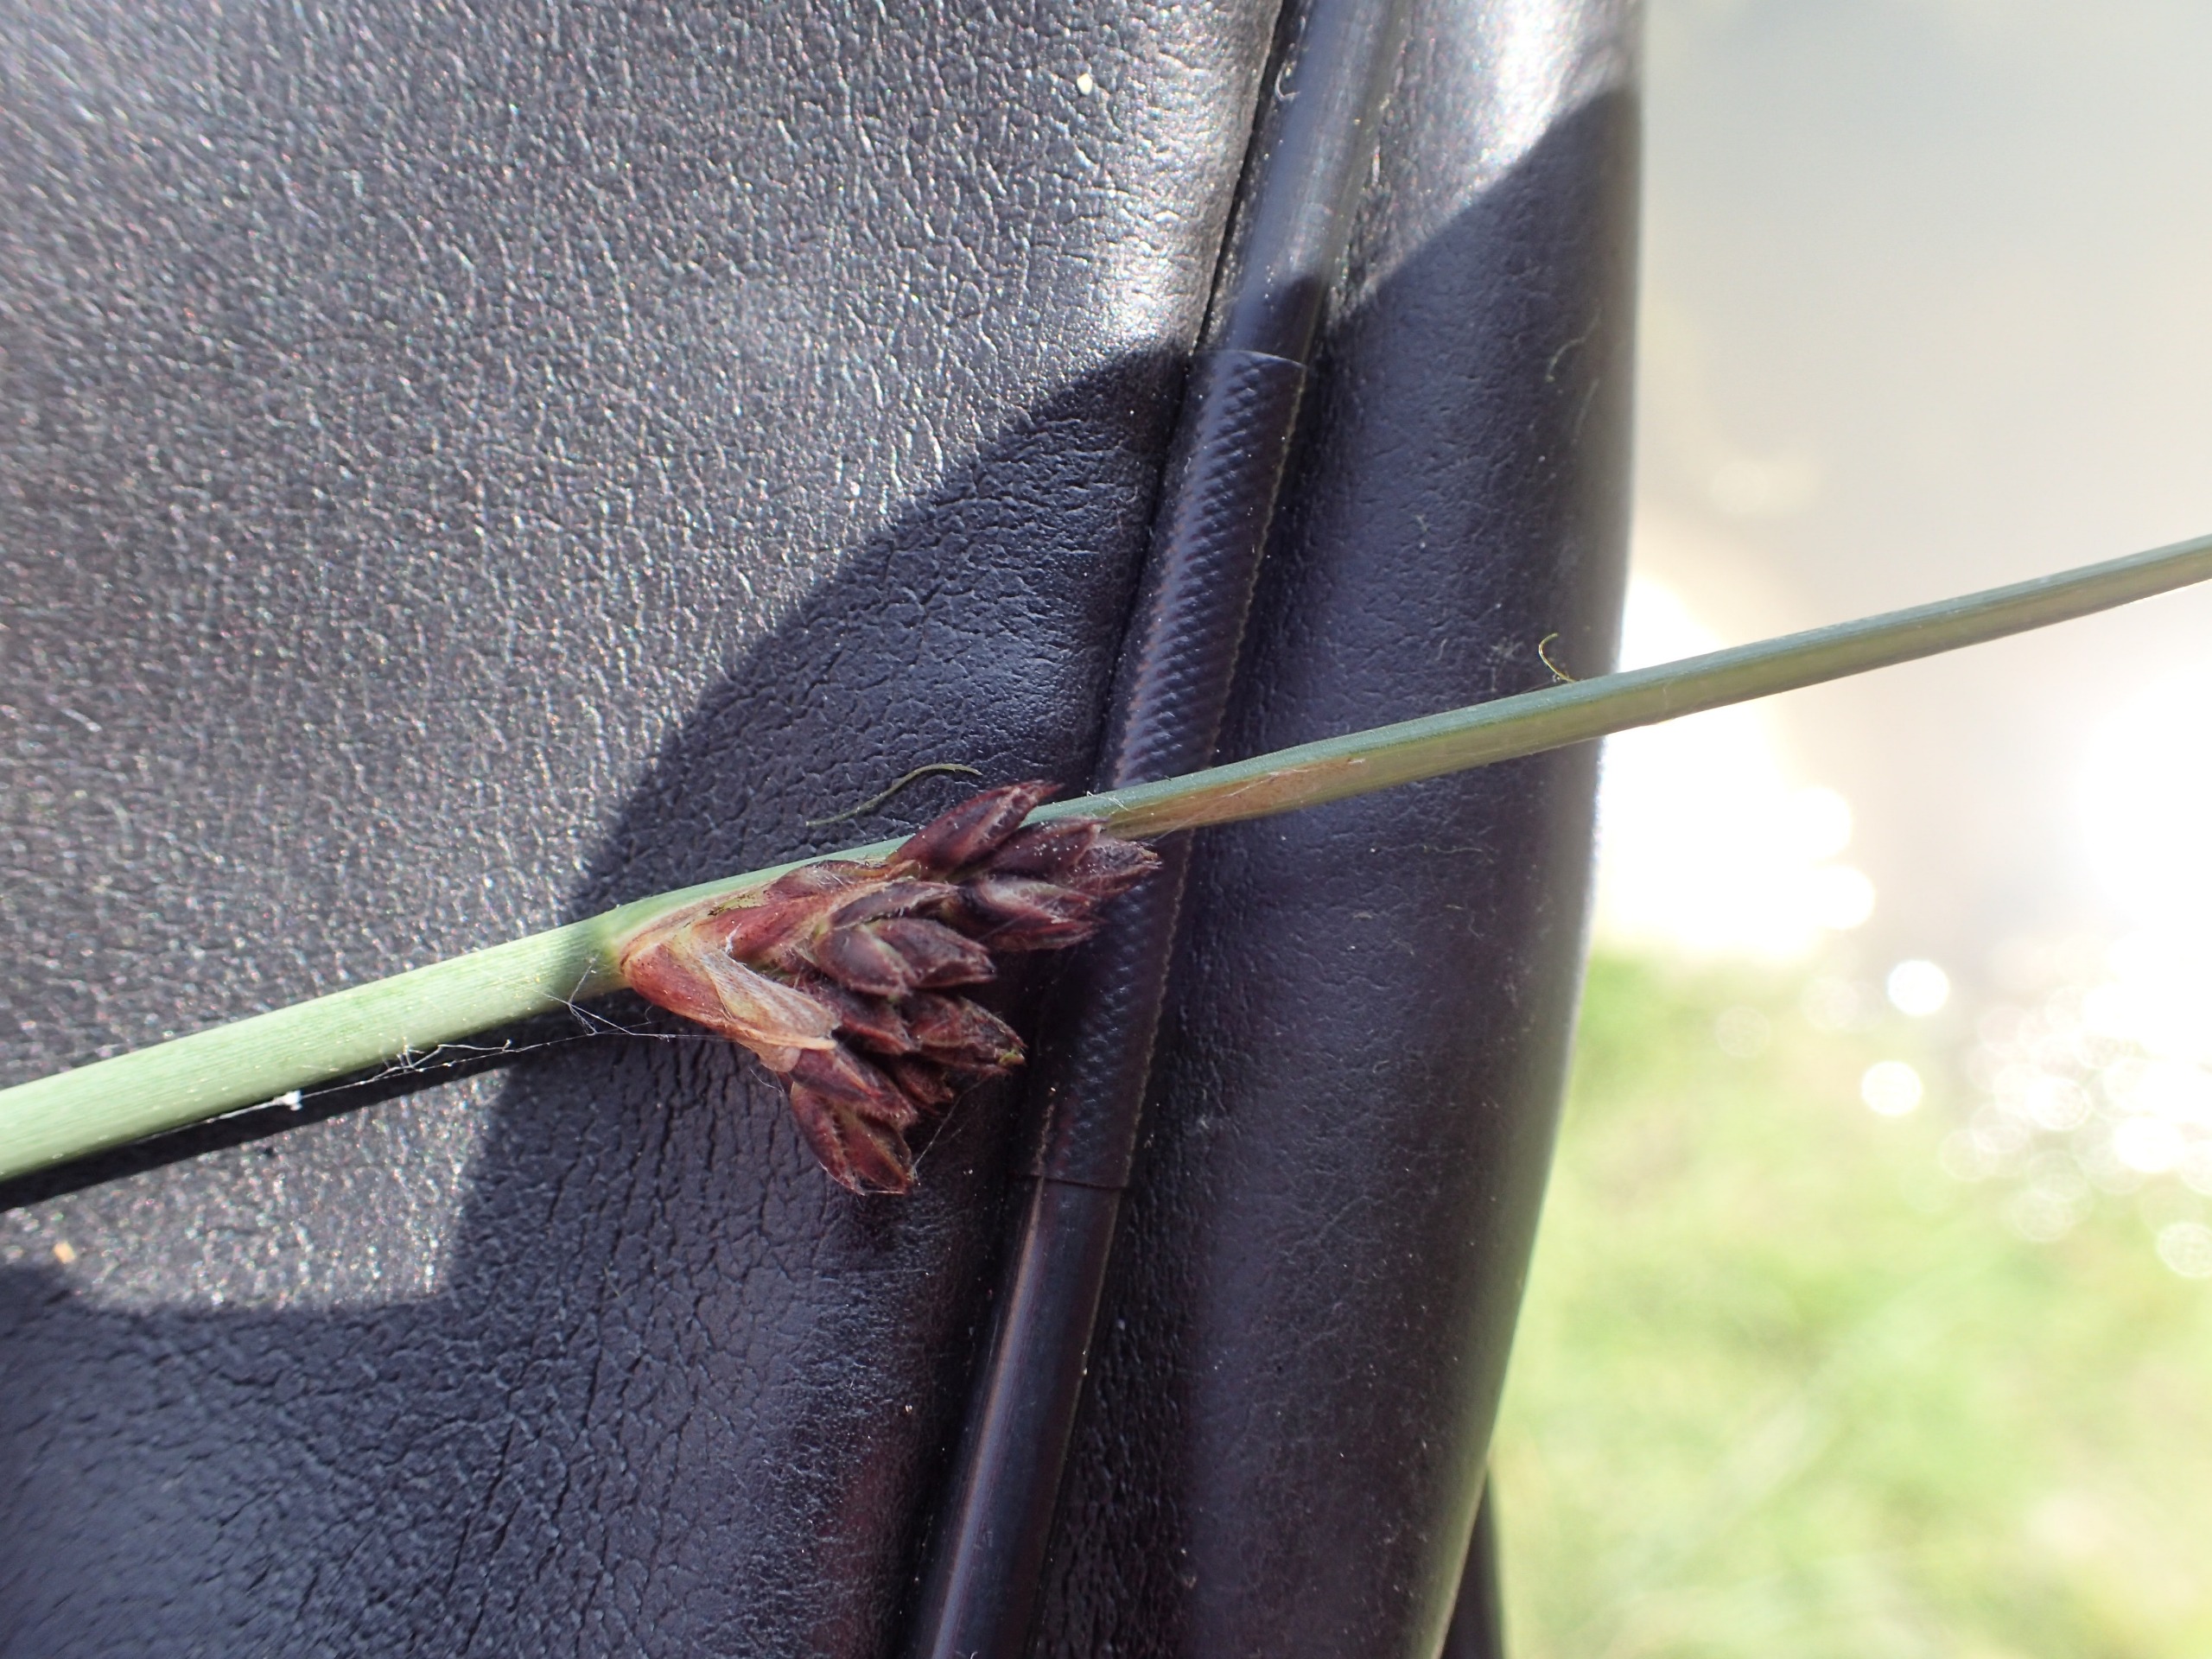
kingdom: Plantae
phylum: Tracheophyta
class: Liliopsida
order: Poales
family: Juncaceae
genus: Juncus
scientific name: Juncus effusus
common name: Lyse-siv
